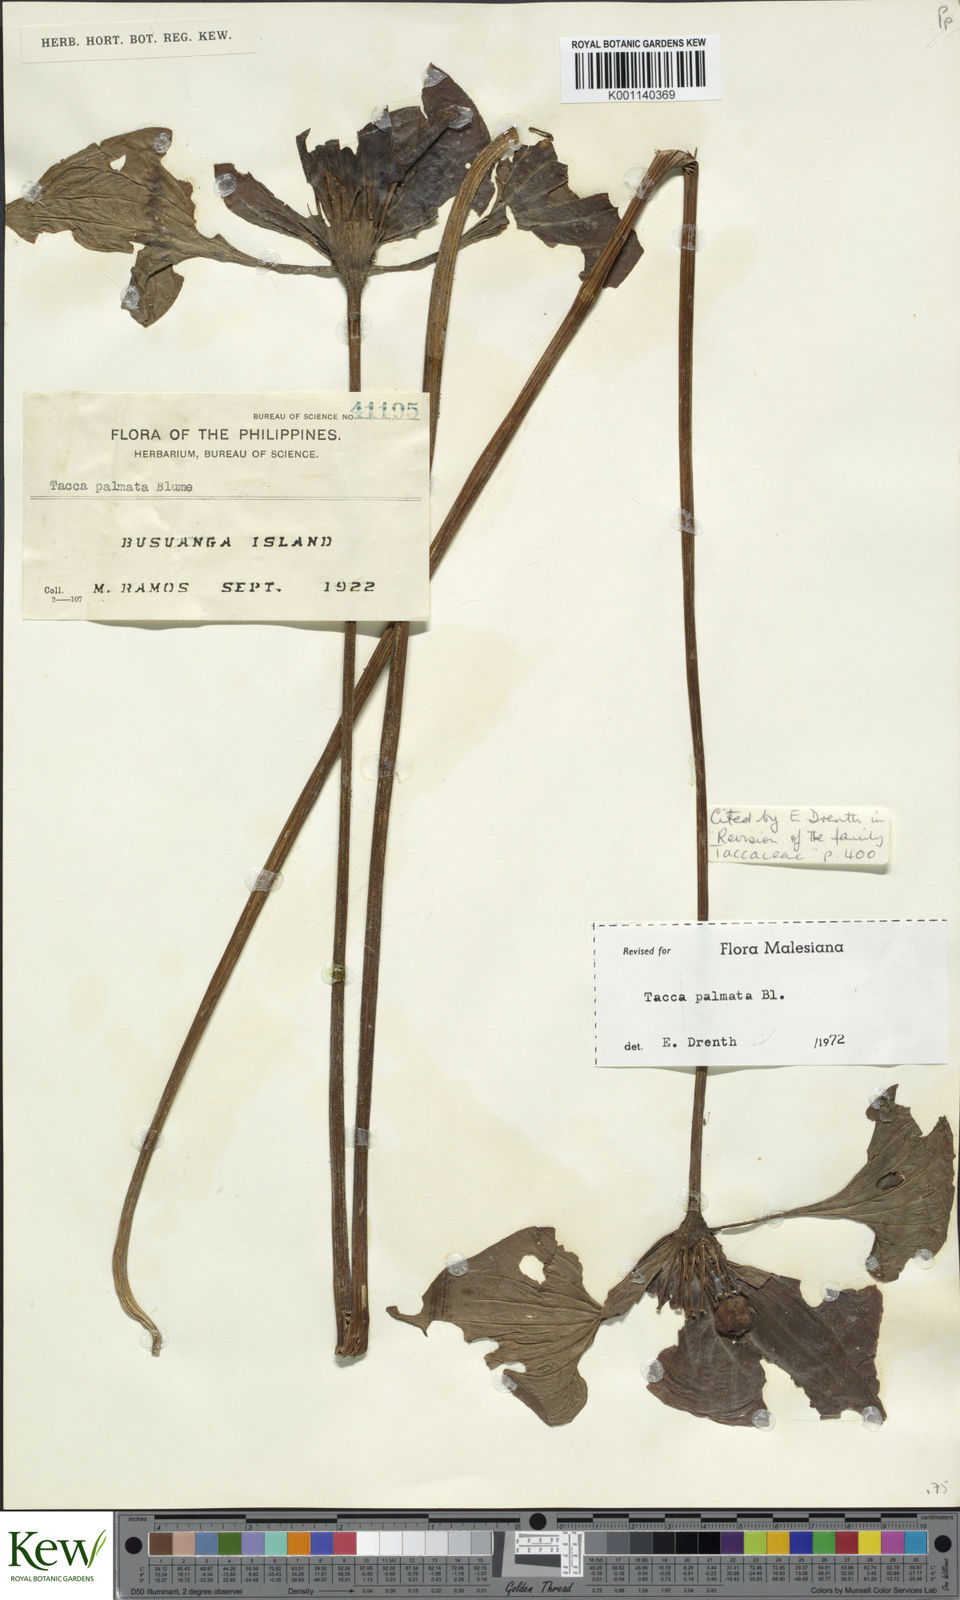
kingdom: Plantae
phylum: Tracheophyta
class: Liliopsida
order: Dioscoreales
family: Dioscoreaceae
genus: Tacca
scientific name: Tacca palmata
